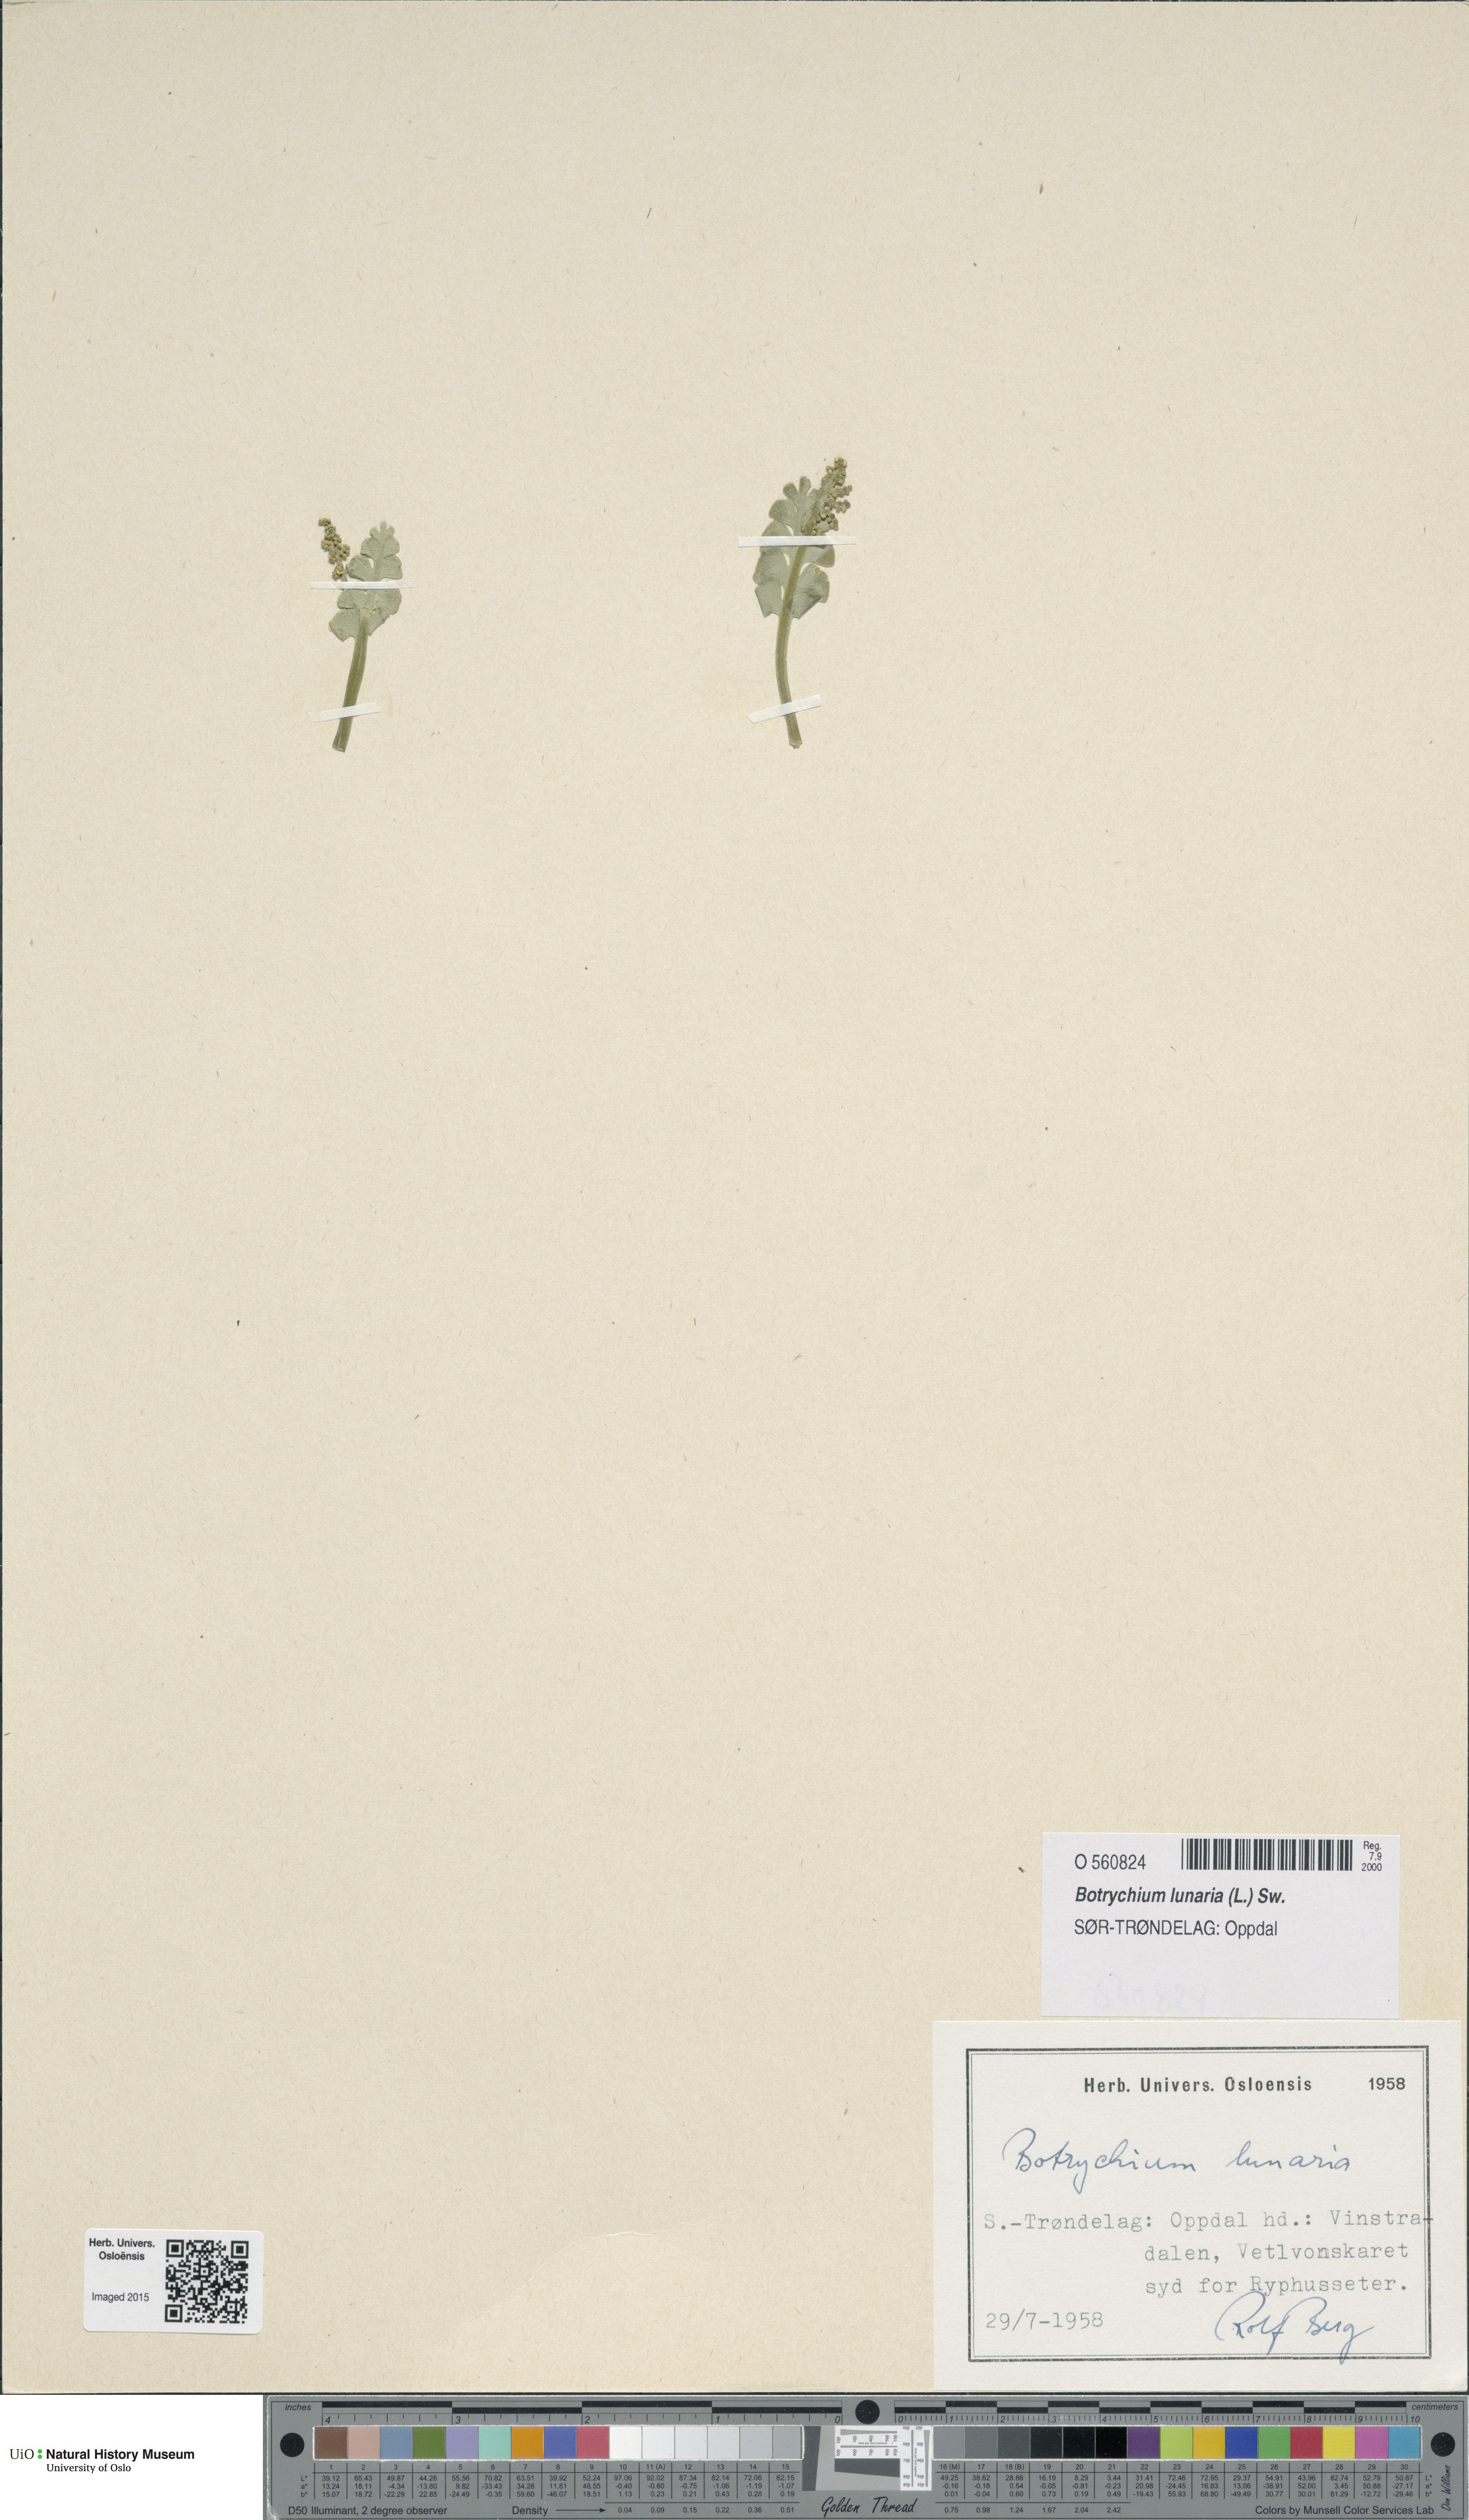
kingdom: Plantae
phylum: Tracheophyta
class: Polypodiopsida
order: Ophioglossales
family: Ophioglossaceae
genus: Botrychium
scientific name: Botrychium lunaria
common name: Moonwort
